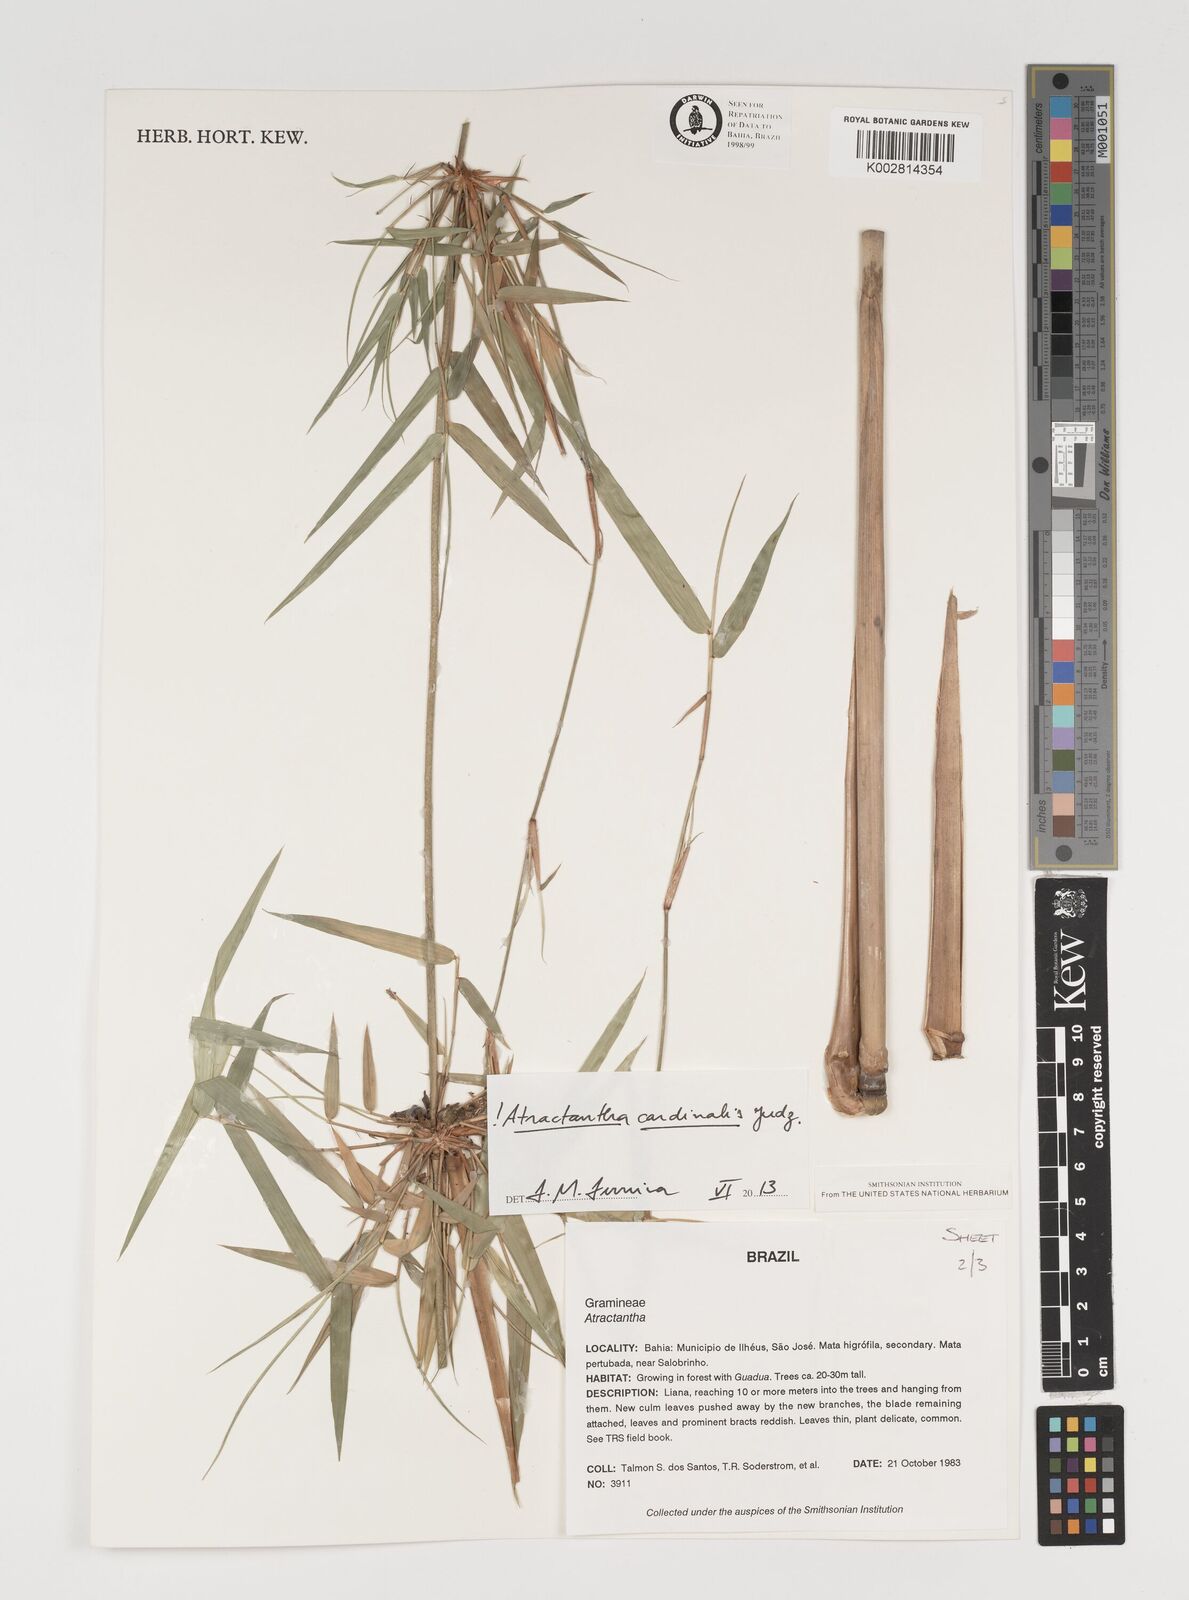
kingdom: Plantae
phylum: Tracheophyta
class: Liliopsida
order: Poales
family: Poaceae
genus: Atractantha
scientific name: Atractantha cardinalis
